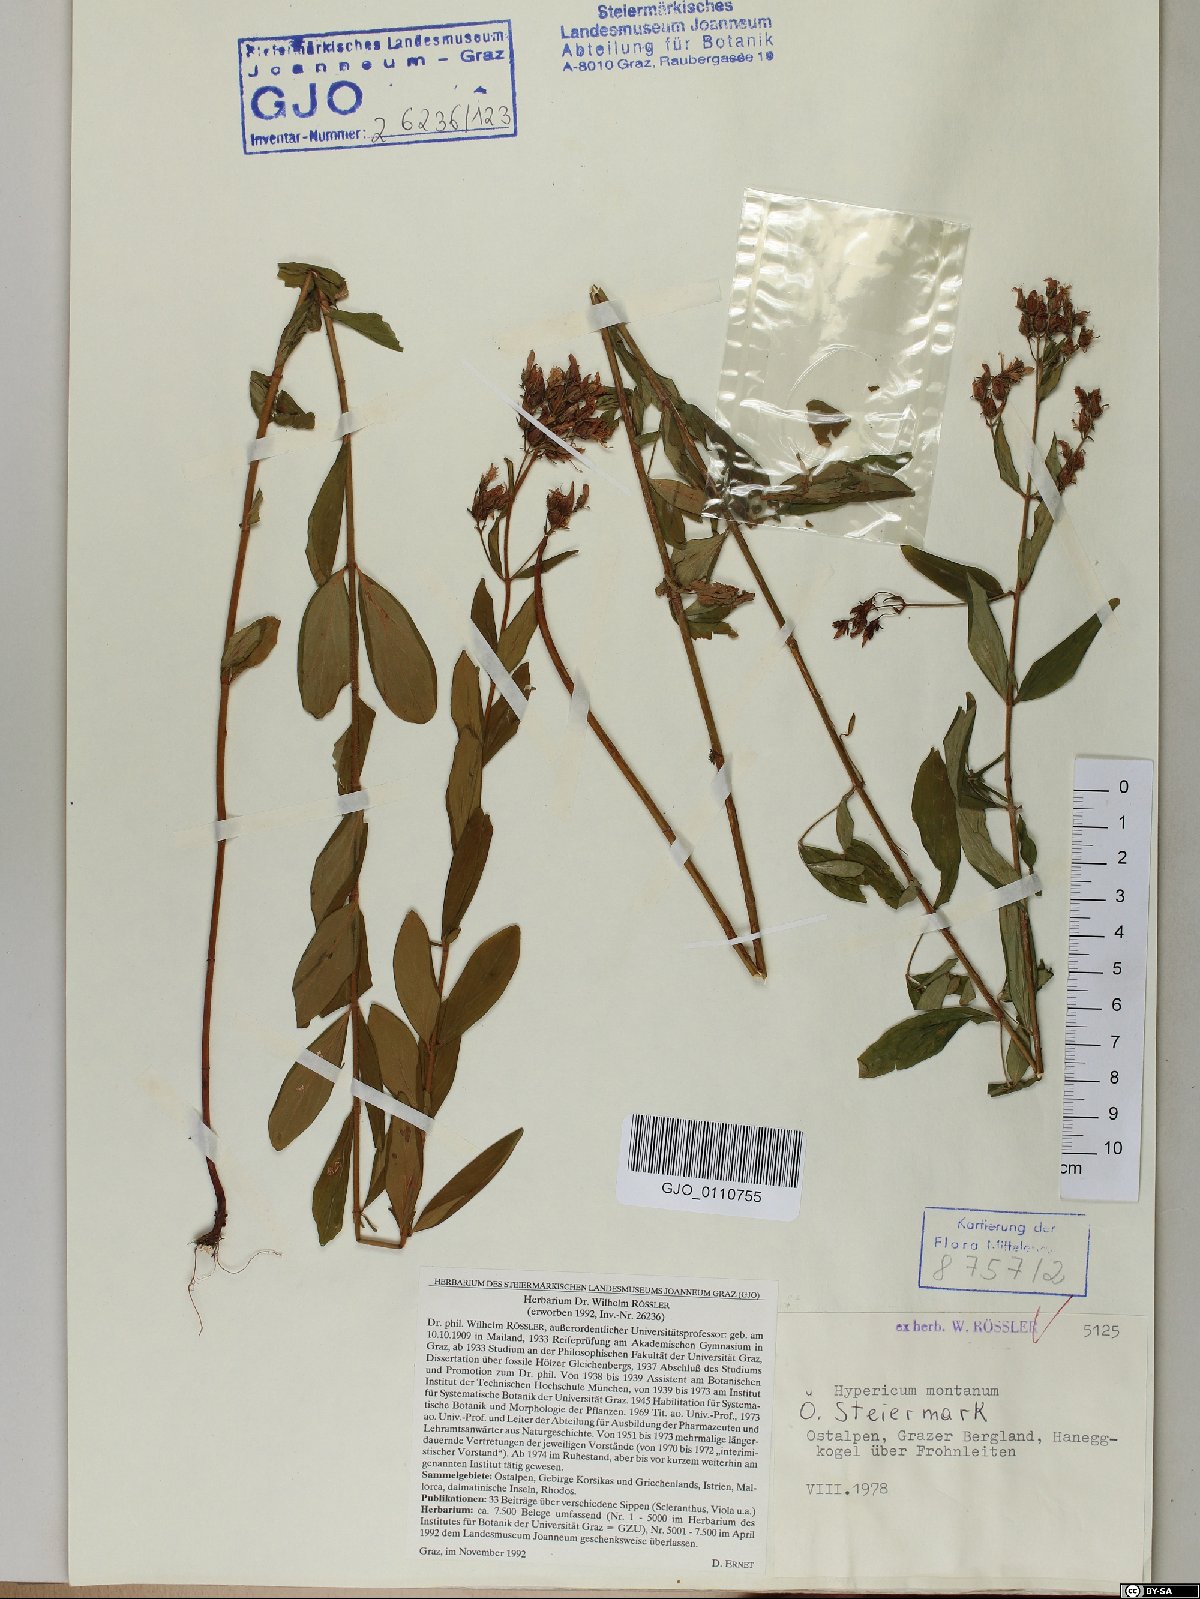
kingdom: Plantae
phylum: Tracheophyta
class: Magnoliopsida
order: Malpighiales
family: Hypericaceae
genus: Hypericum
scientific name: Hypericum montanum
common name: Pale st. john's-wort
